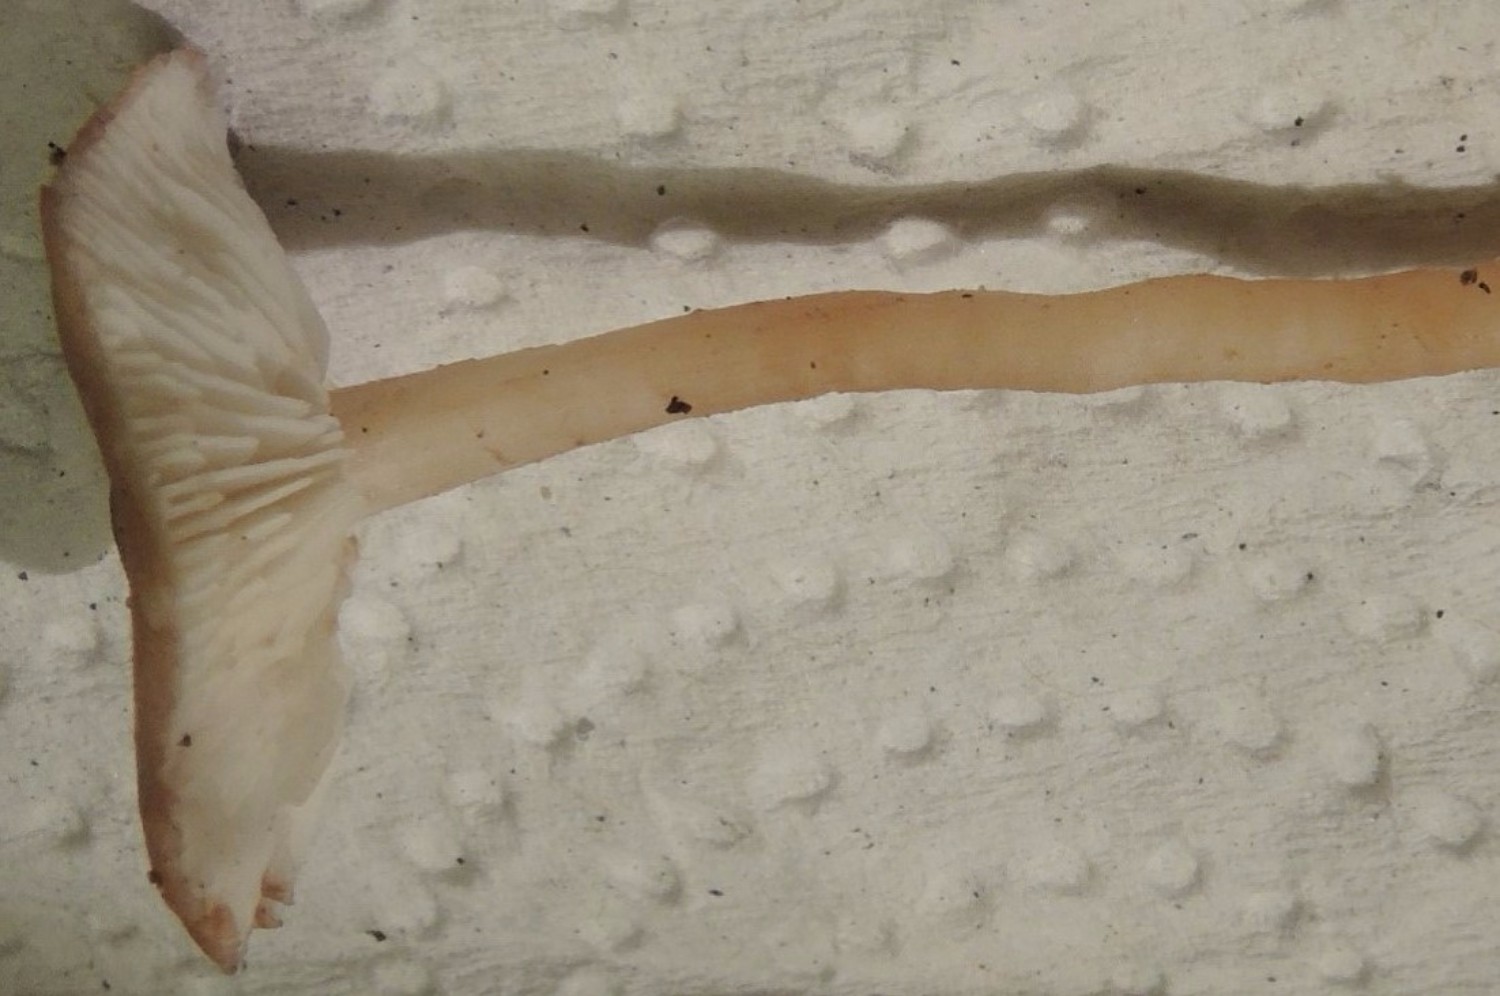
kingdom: Fungi
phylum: Basidiomycota
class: Agaricomycetes
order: Agaricales
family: Lyophyllaceae
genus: Calocybe
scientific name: Calocybe carnea
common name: rosa fagerhat
